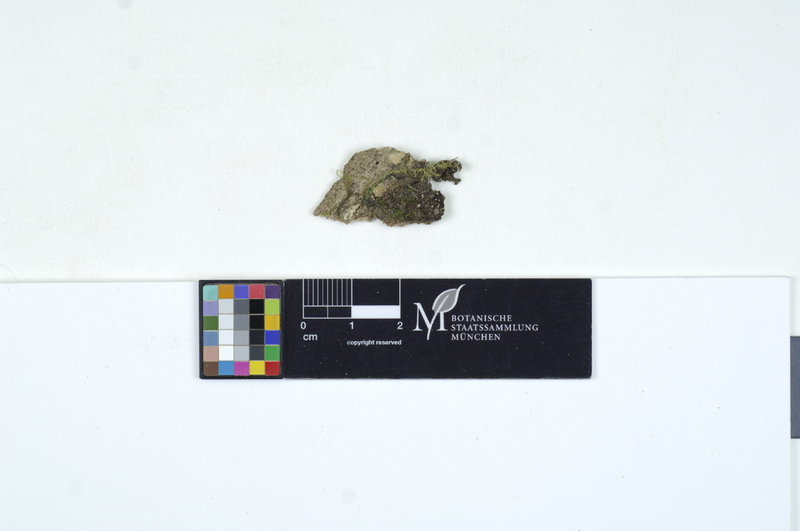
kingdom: Plantae
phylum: Tracheophyta
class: Magnoliopsida
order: Malpighiales
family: Salicaceae
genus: Populus
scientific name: Populus
